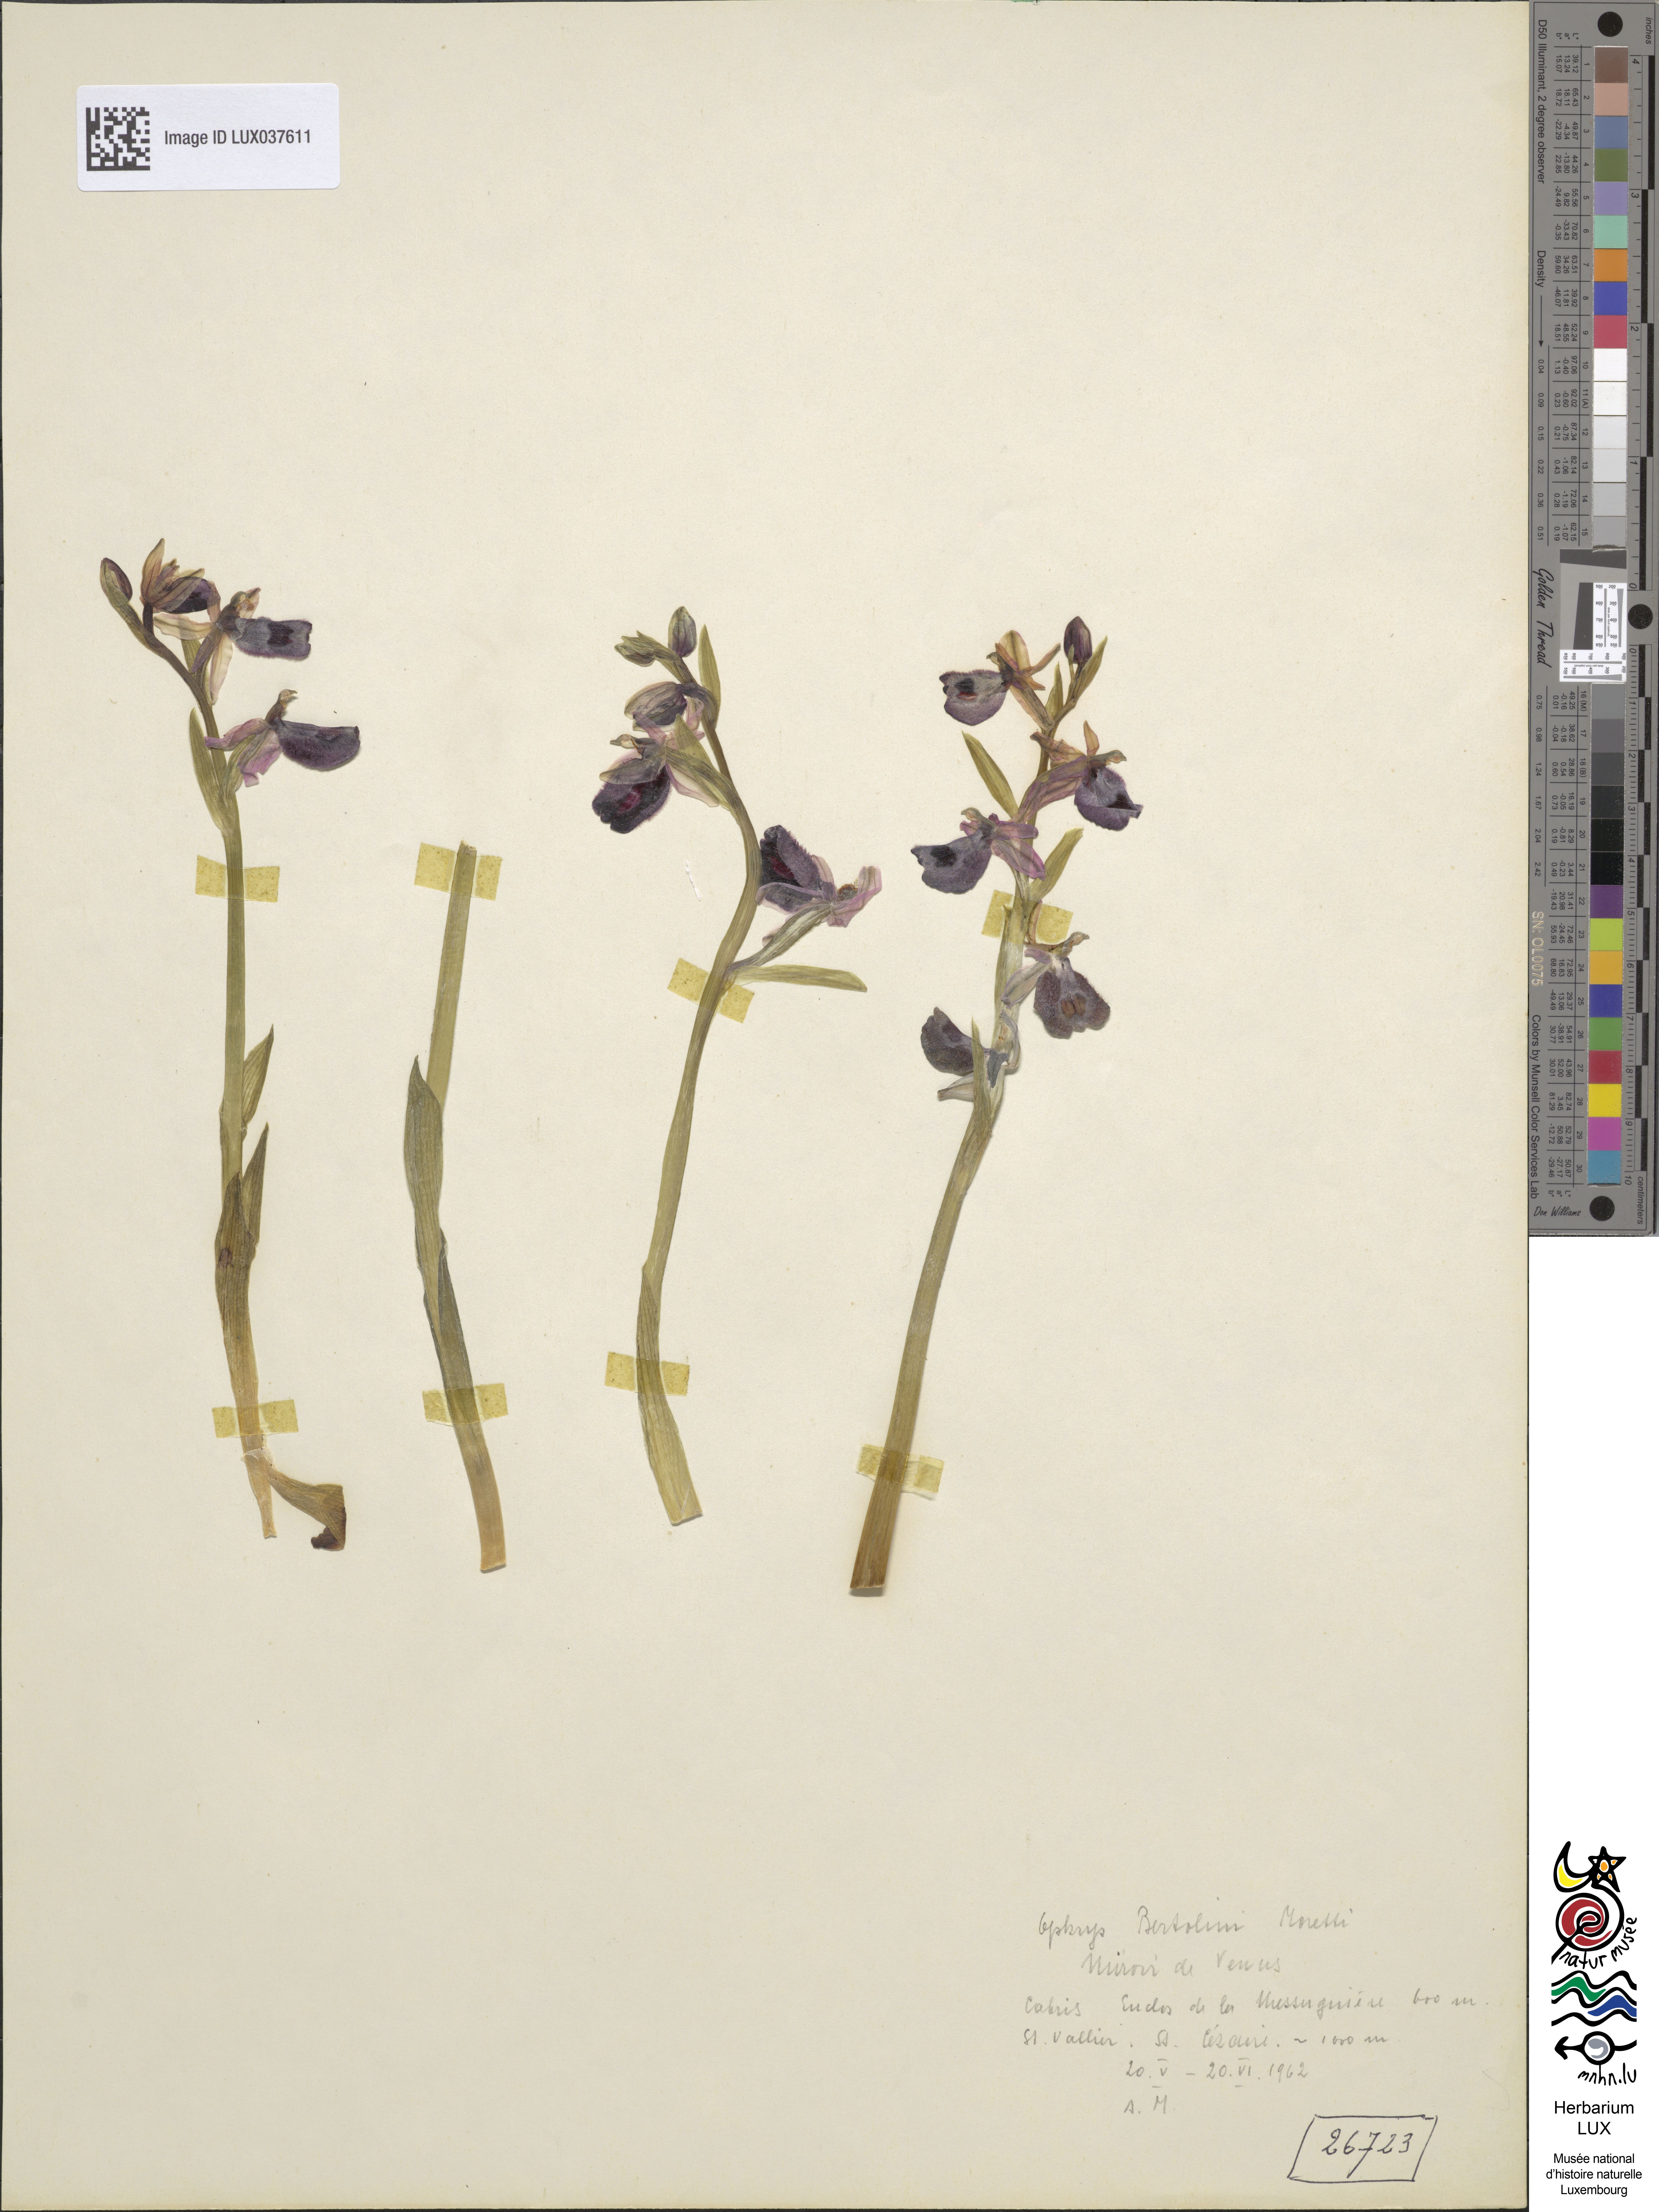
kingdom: Plantae
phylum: Tracheophyta
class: Liliopsida
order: Asparagales
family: Orchidaceae
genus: Ophrys
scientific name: Ophrys bertolonii
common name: Bertoloni's bee orchid
